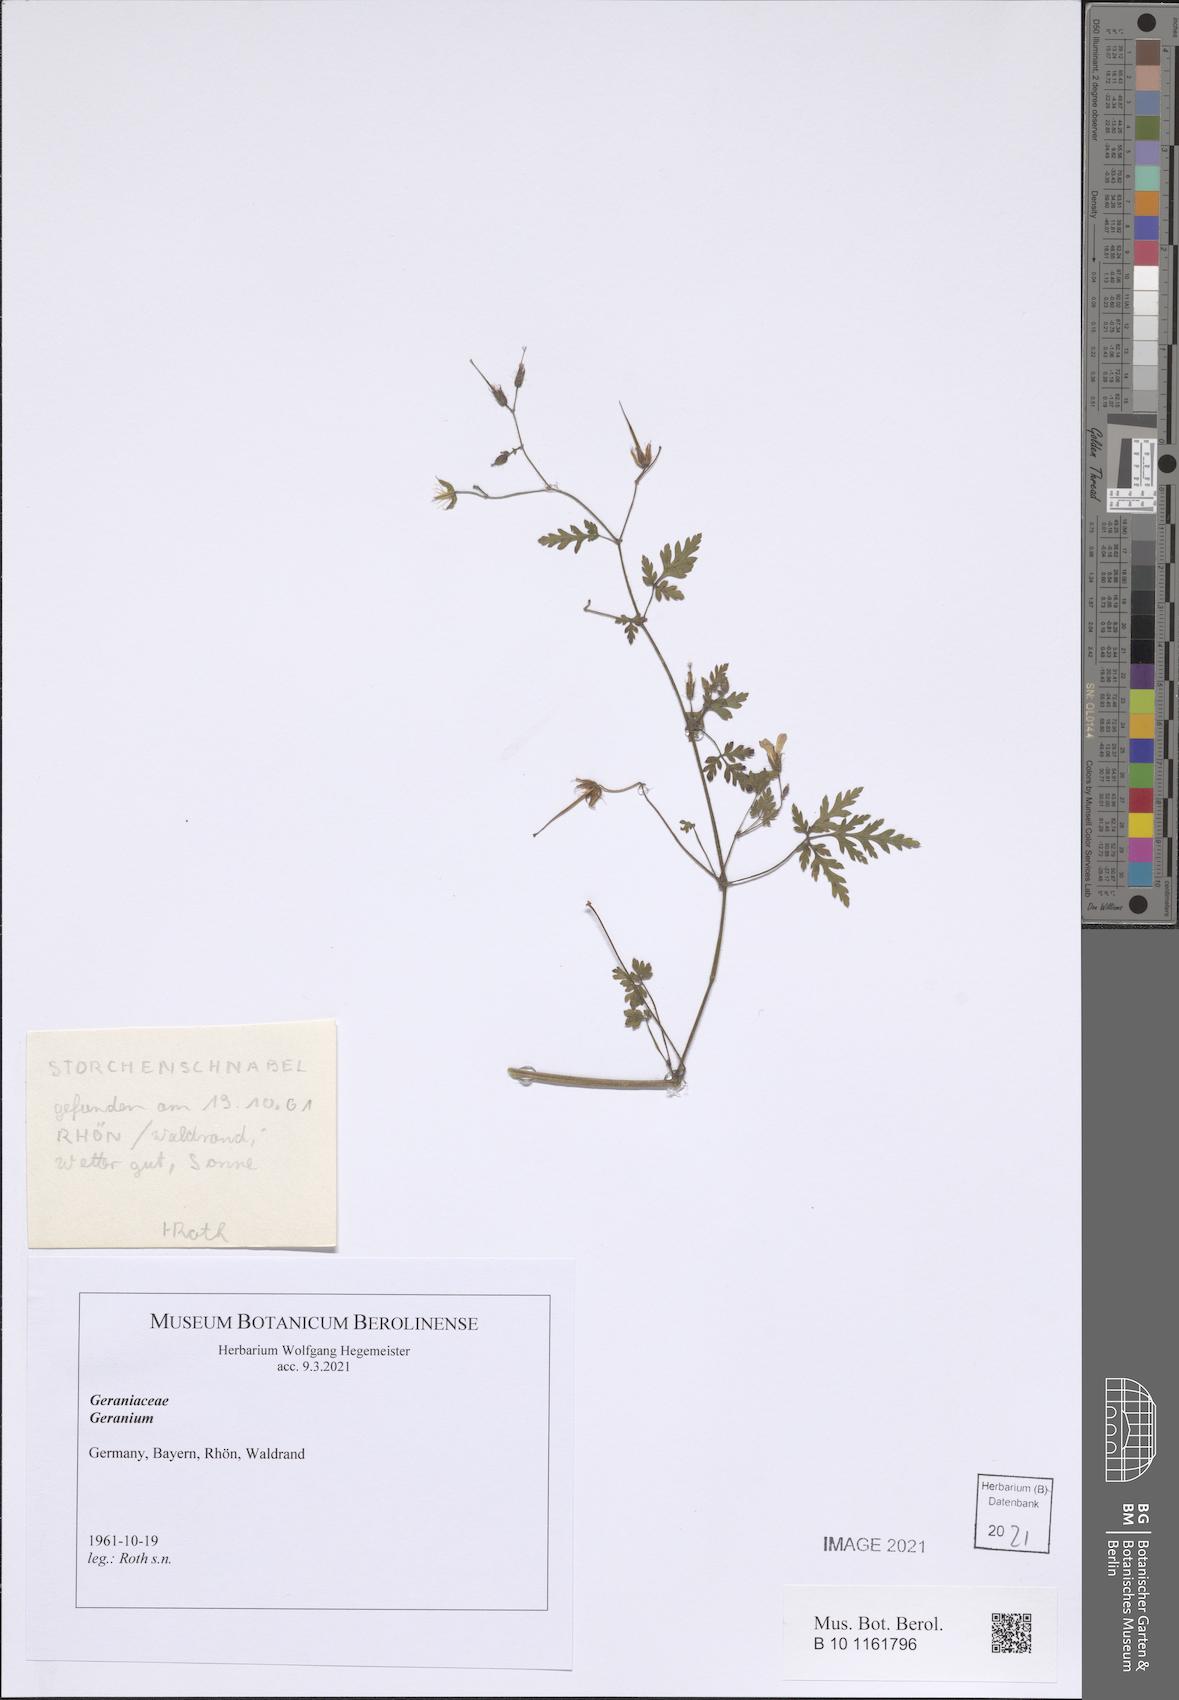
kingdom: Plantae
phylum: Tracheophyta
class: Magnoliopsida
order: Geraniales
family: Geraniaceae
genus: Geranium
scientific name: Geranium
